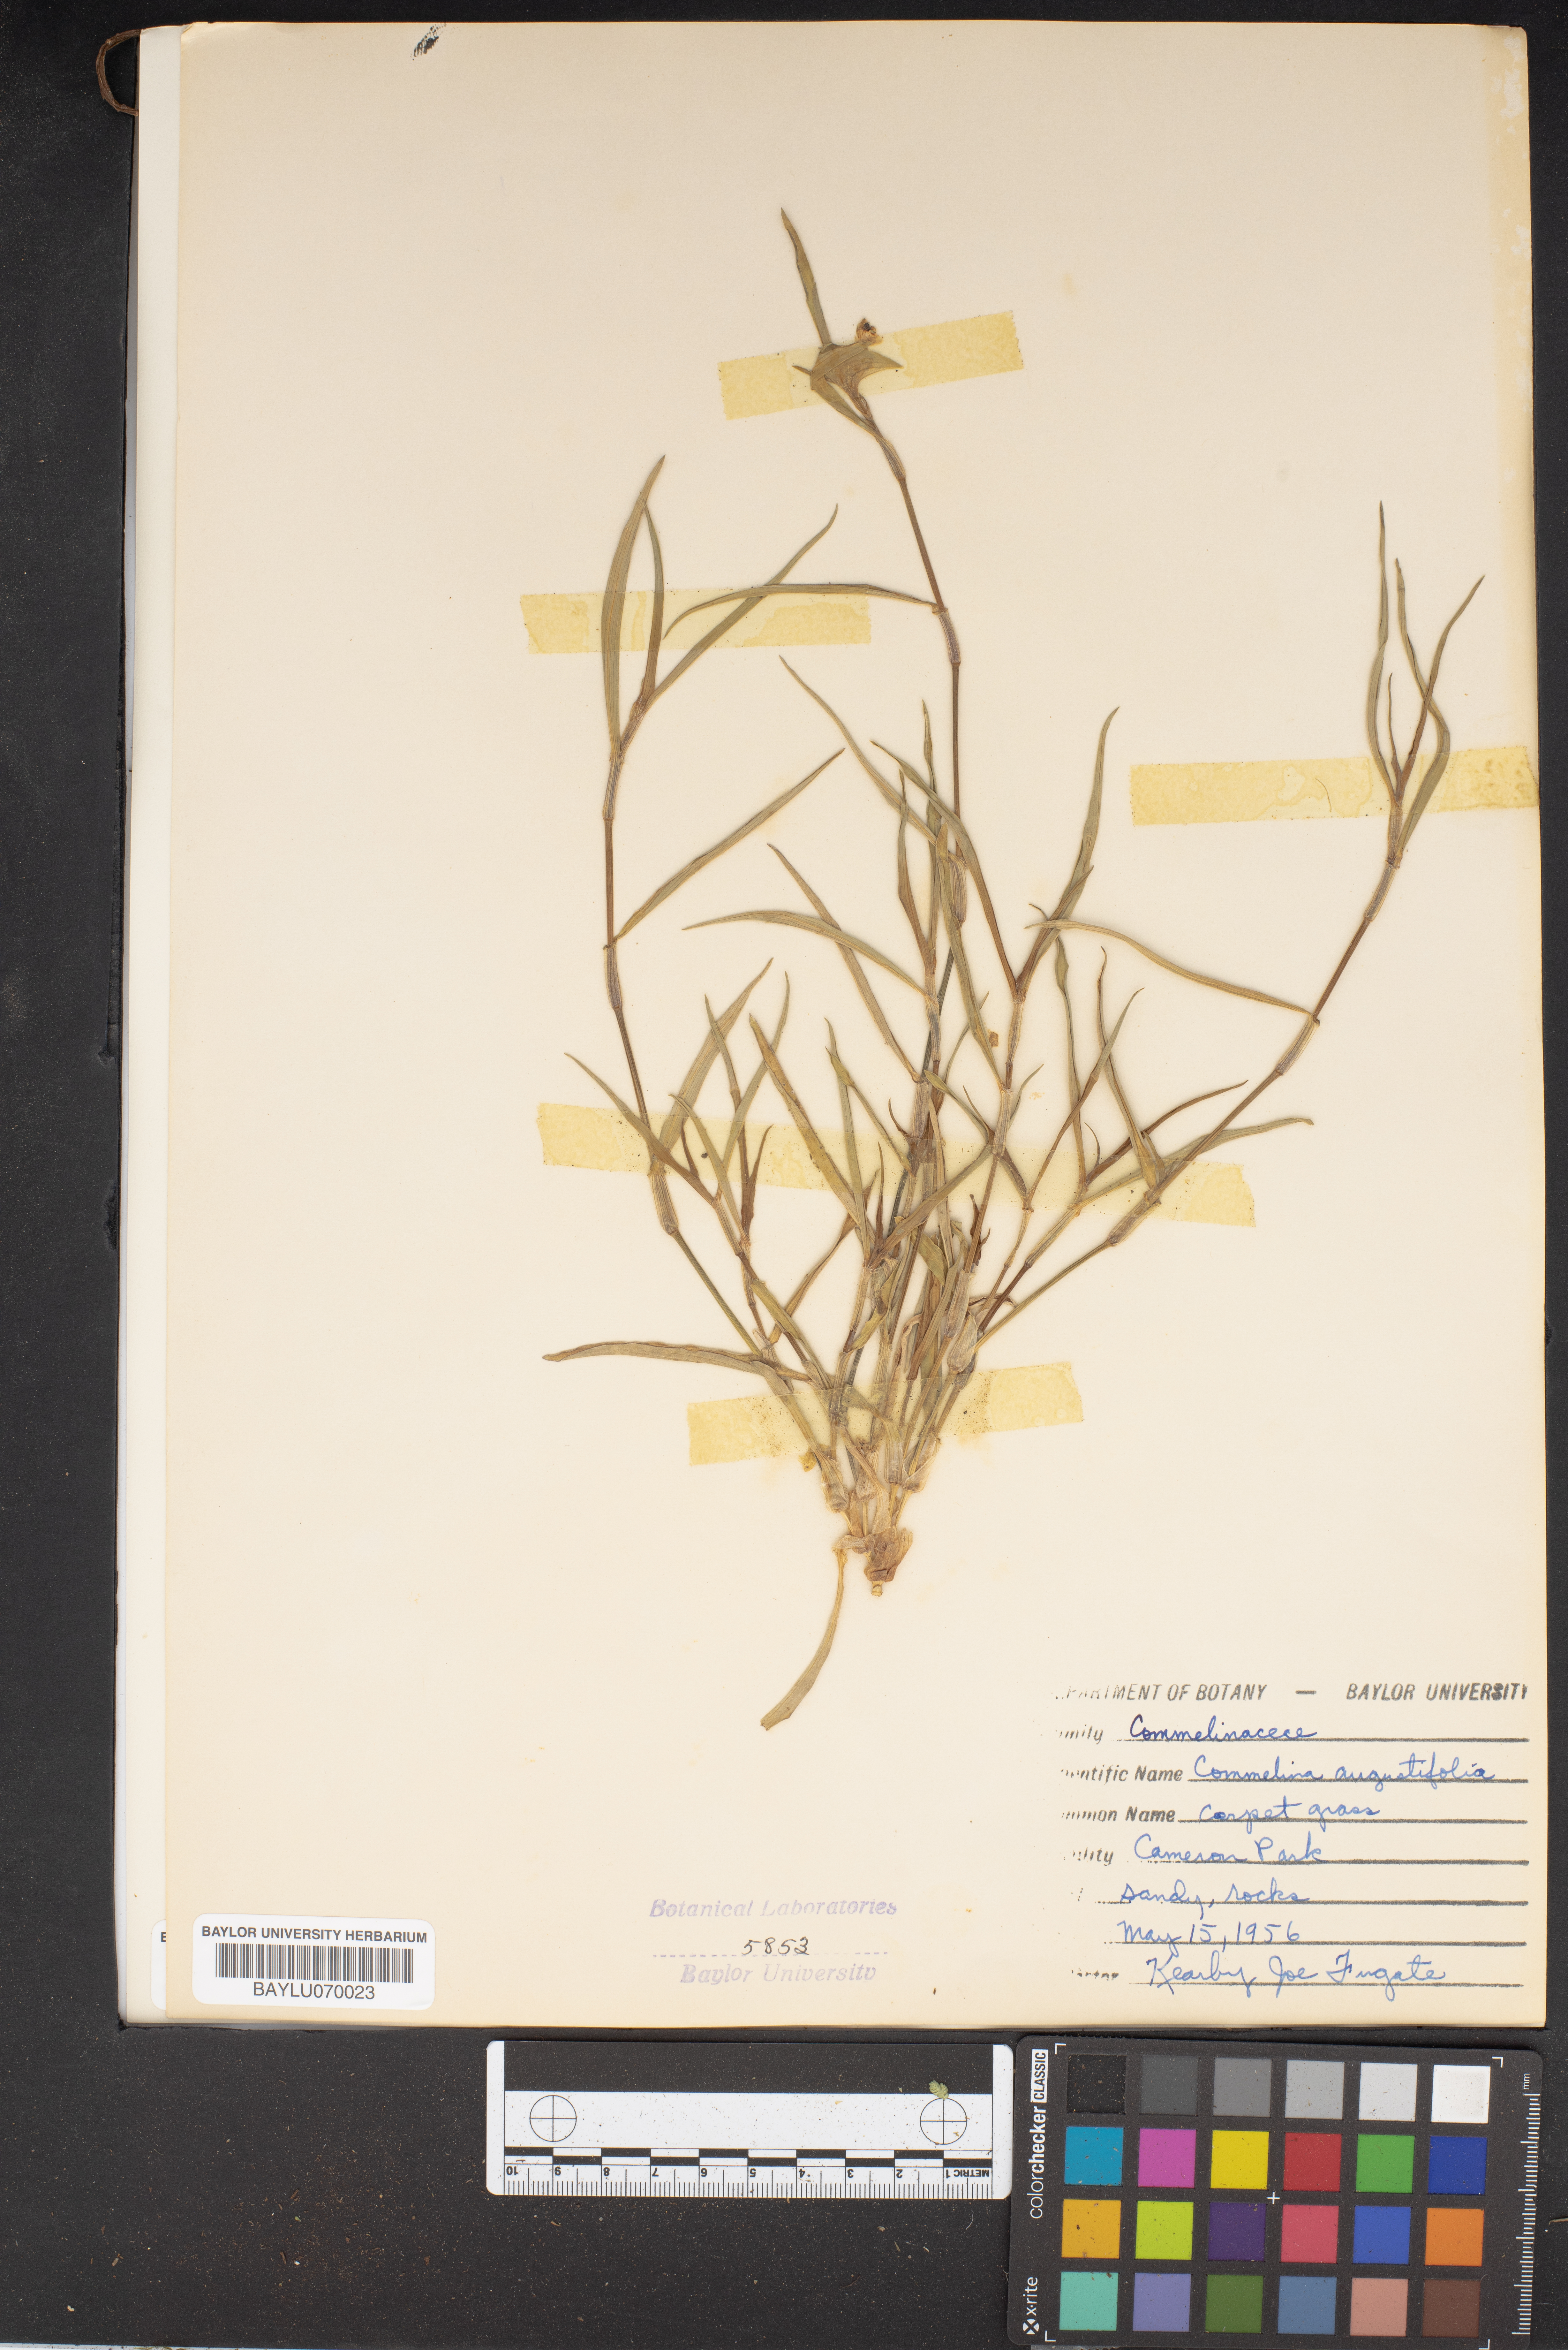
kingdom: Plantae
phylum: Tracheophyta
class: Liliopsida
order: Commelinales
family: Commelinaceae
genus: Commelina
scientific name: Commelina erecta
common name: Blousel blommetjie
